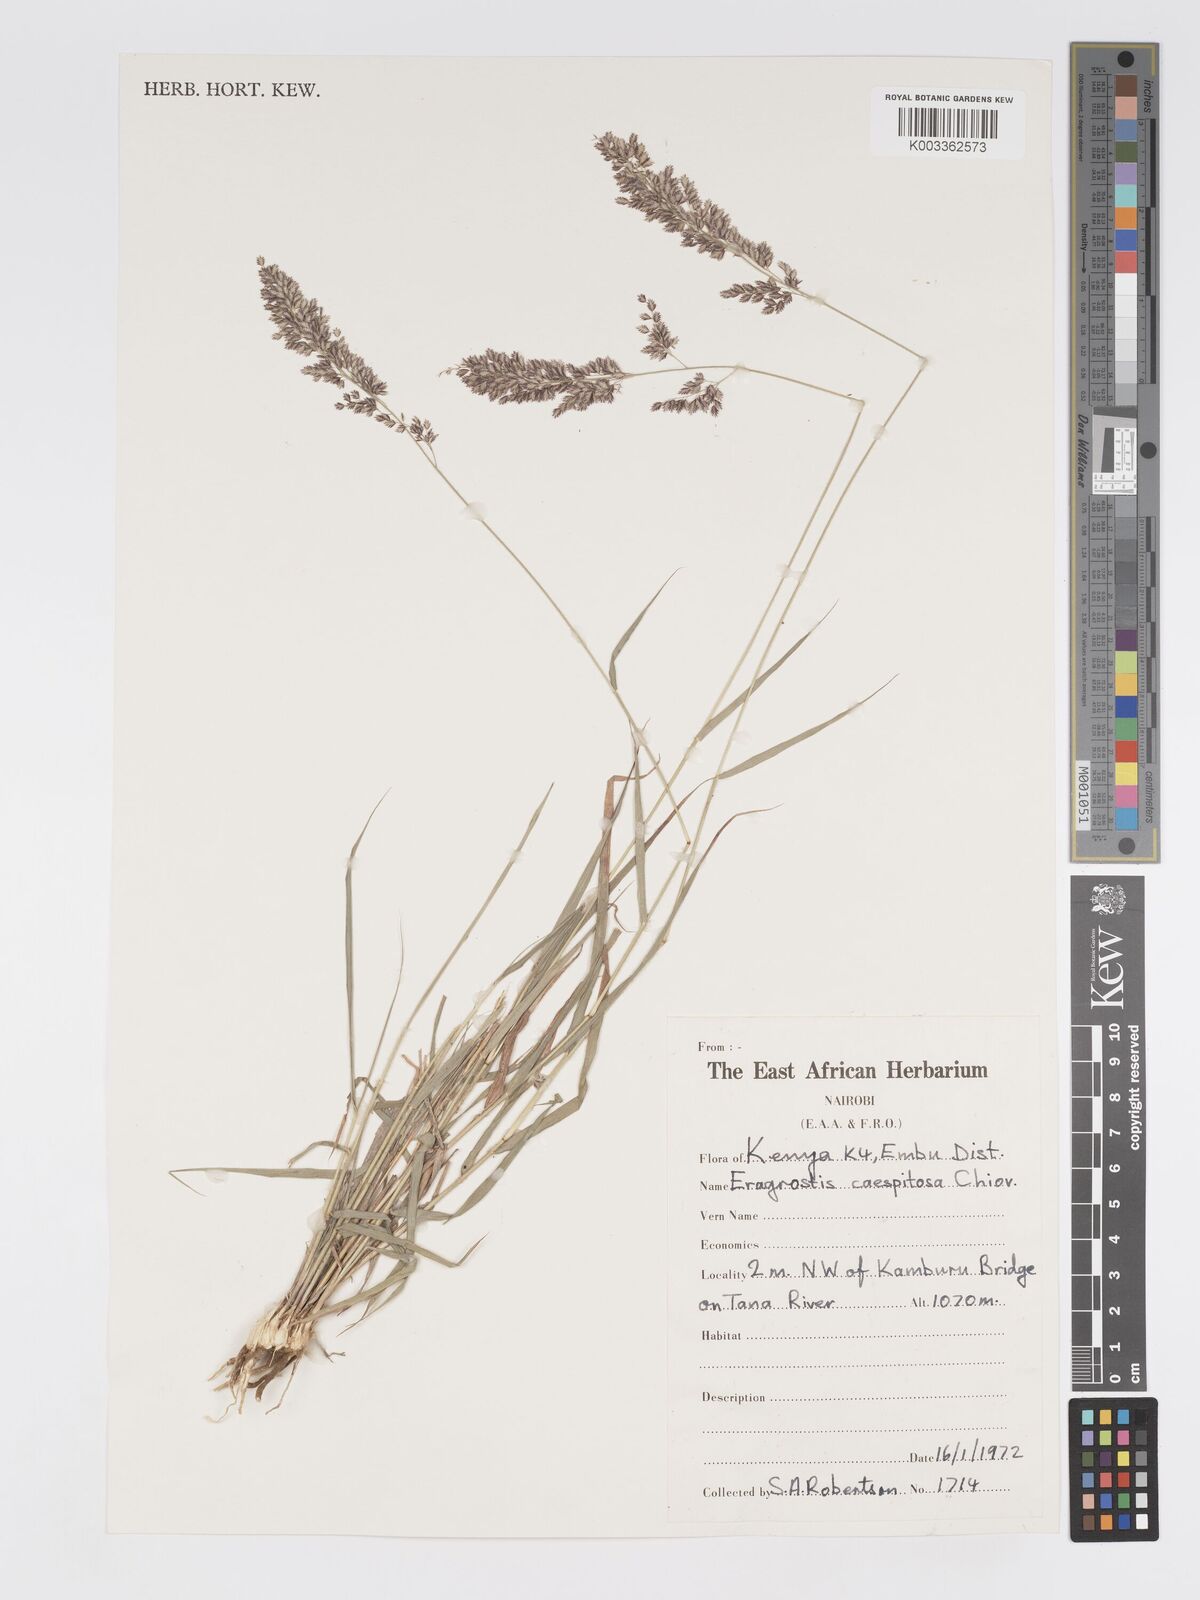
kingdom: Plantae
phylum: Tracheophyta
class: Liliopsida
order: Poales
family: Poaceae
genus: Eragrostis
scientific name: Eragrostis caespitosa
